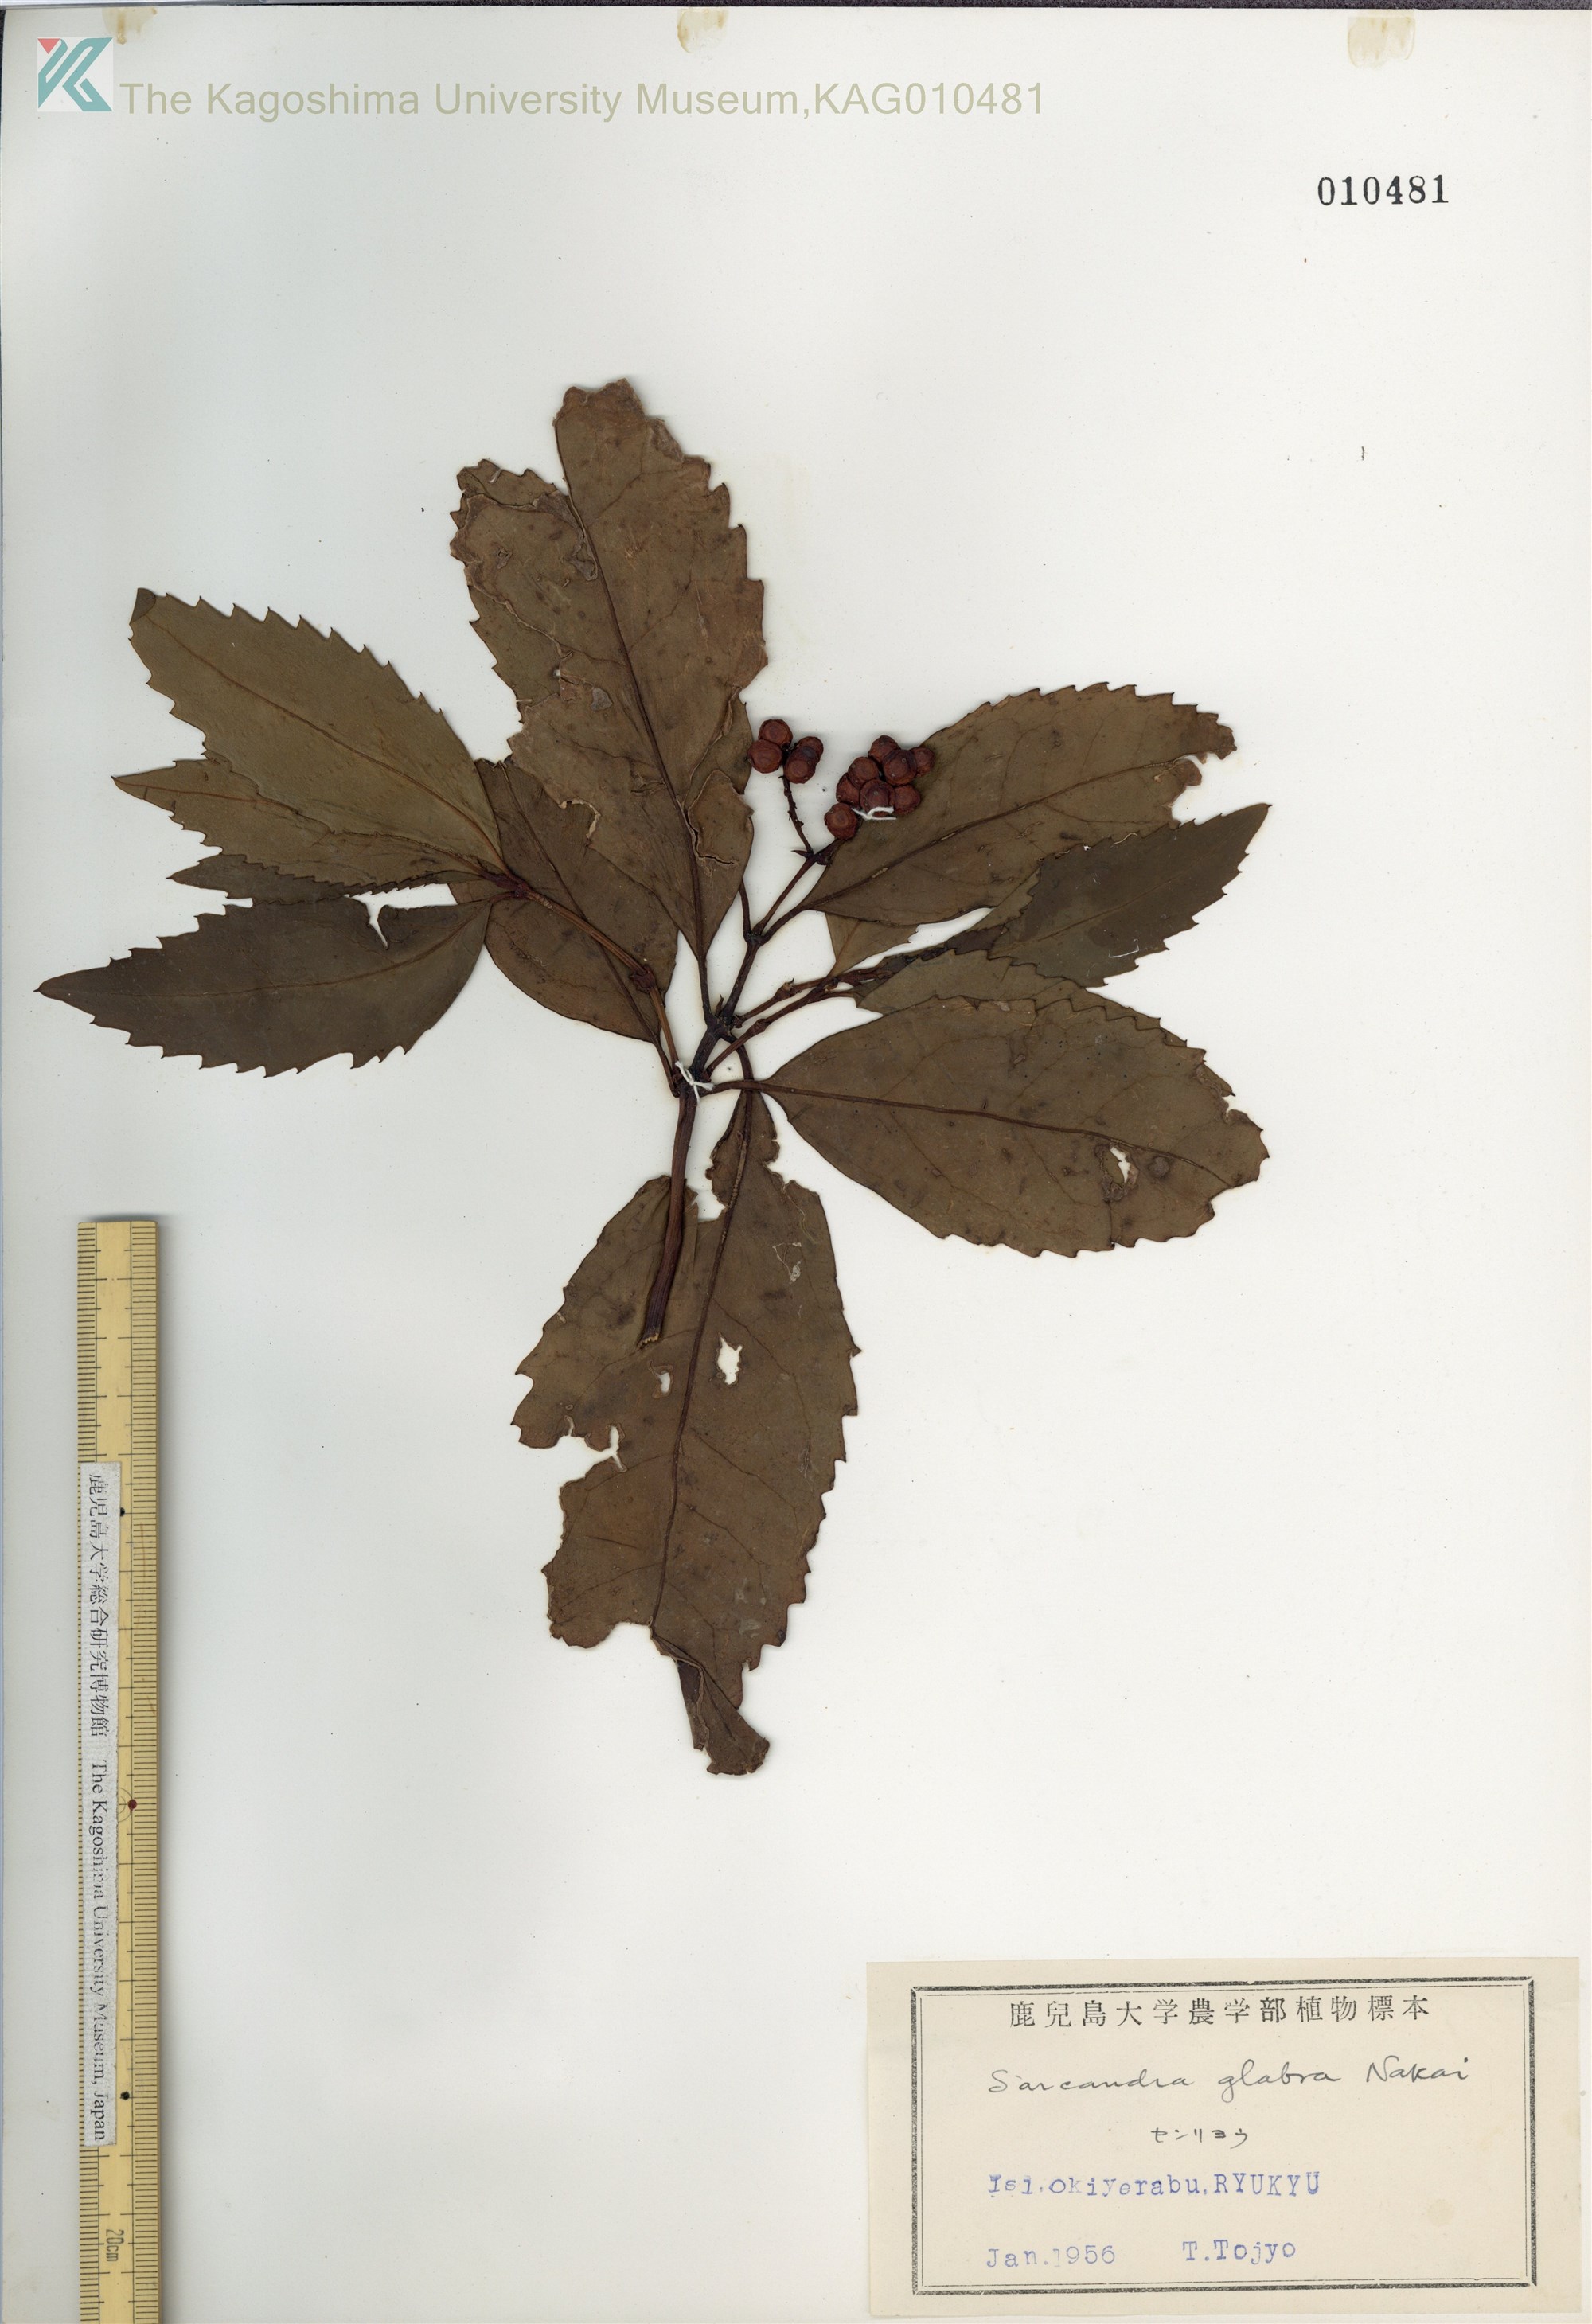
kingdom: Plantae
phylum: Tracheophyta
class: Magnoliopsida
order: Chloranthales
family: Chloranthaceae
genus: Sarcandra
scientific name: Sarcandra glabra
